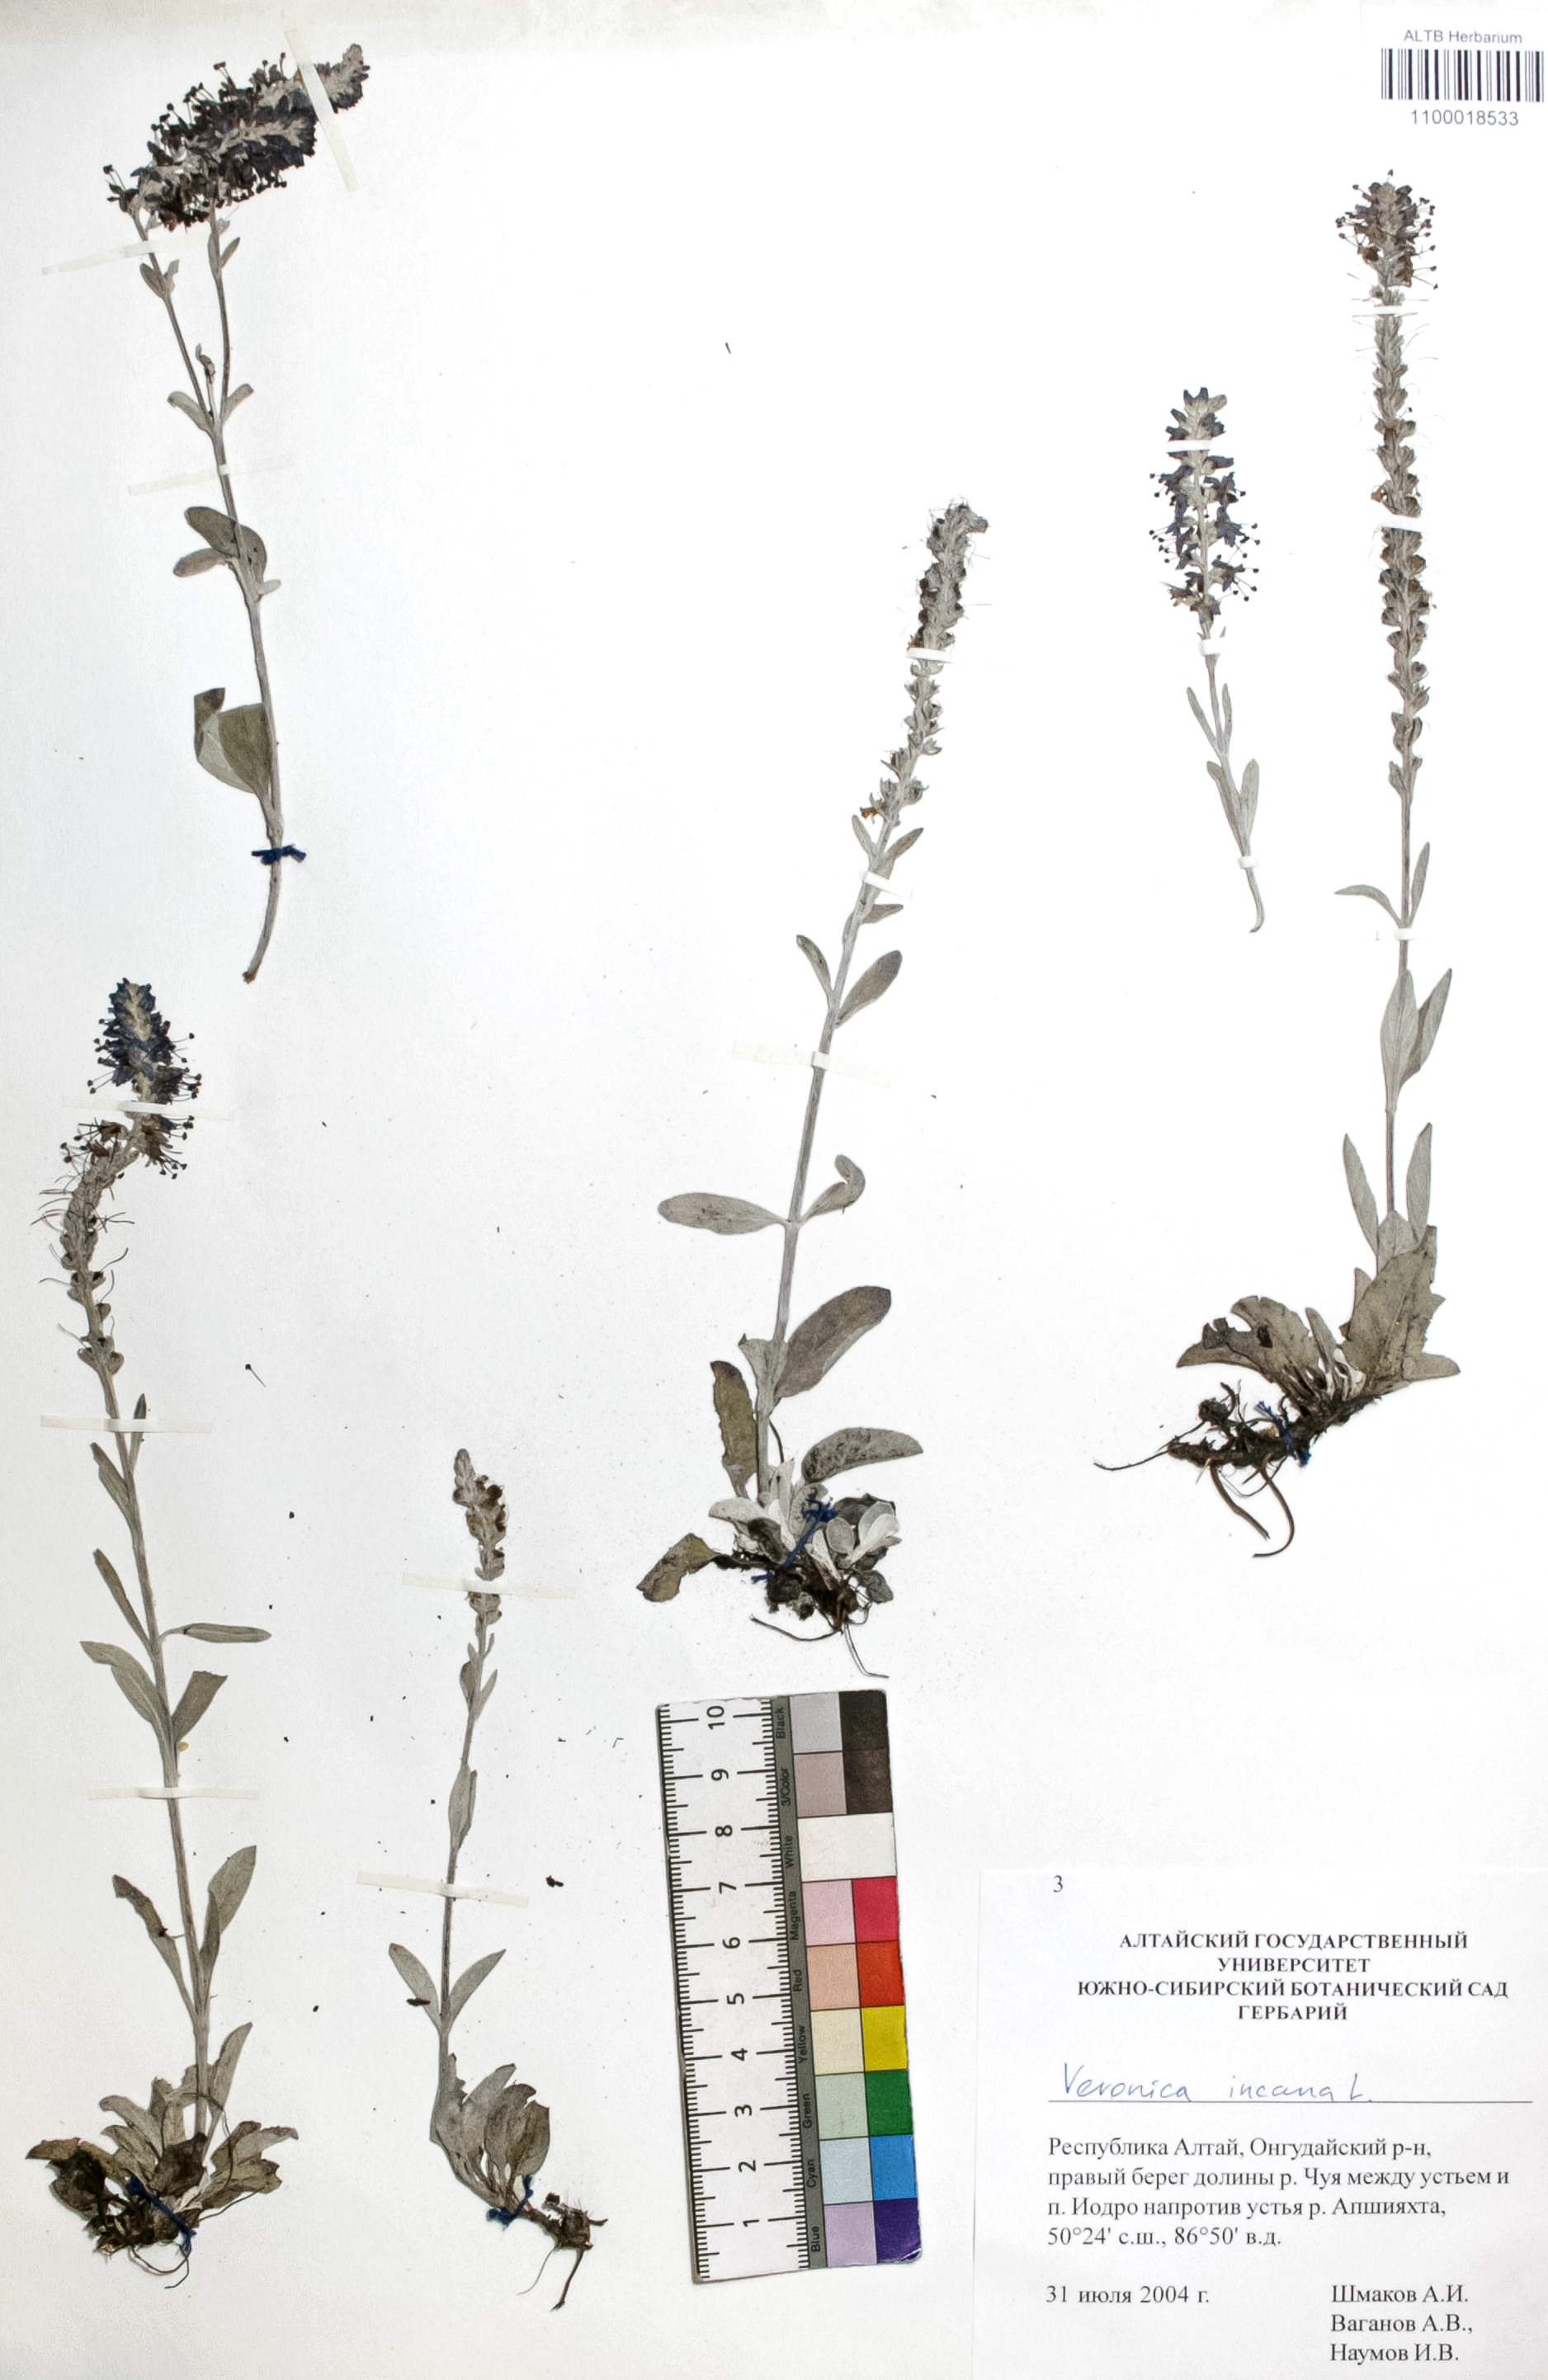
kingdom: Plantae
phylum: Tracheophyta
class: Magnoliopsida
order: Lamiales
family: Plantaginaceae
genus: Veronica
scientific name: Veronica incana
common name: Silver speedwell
